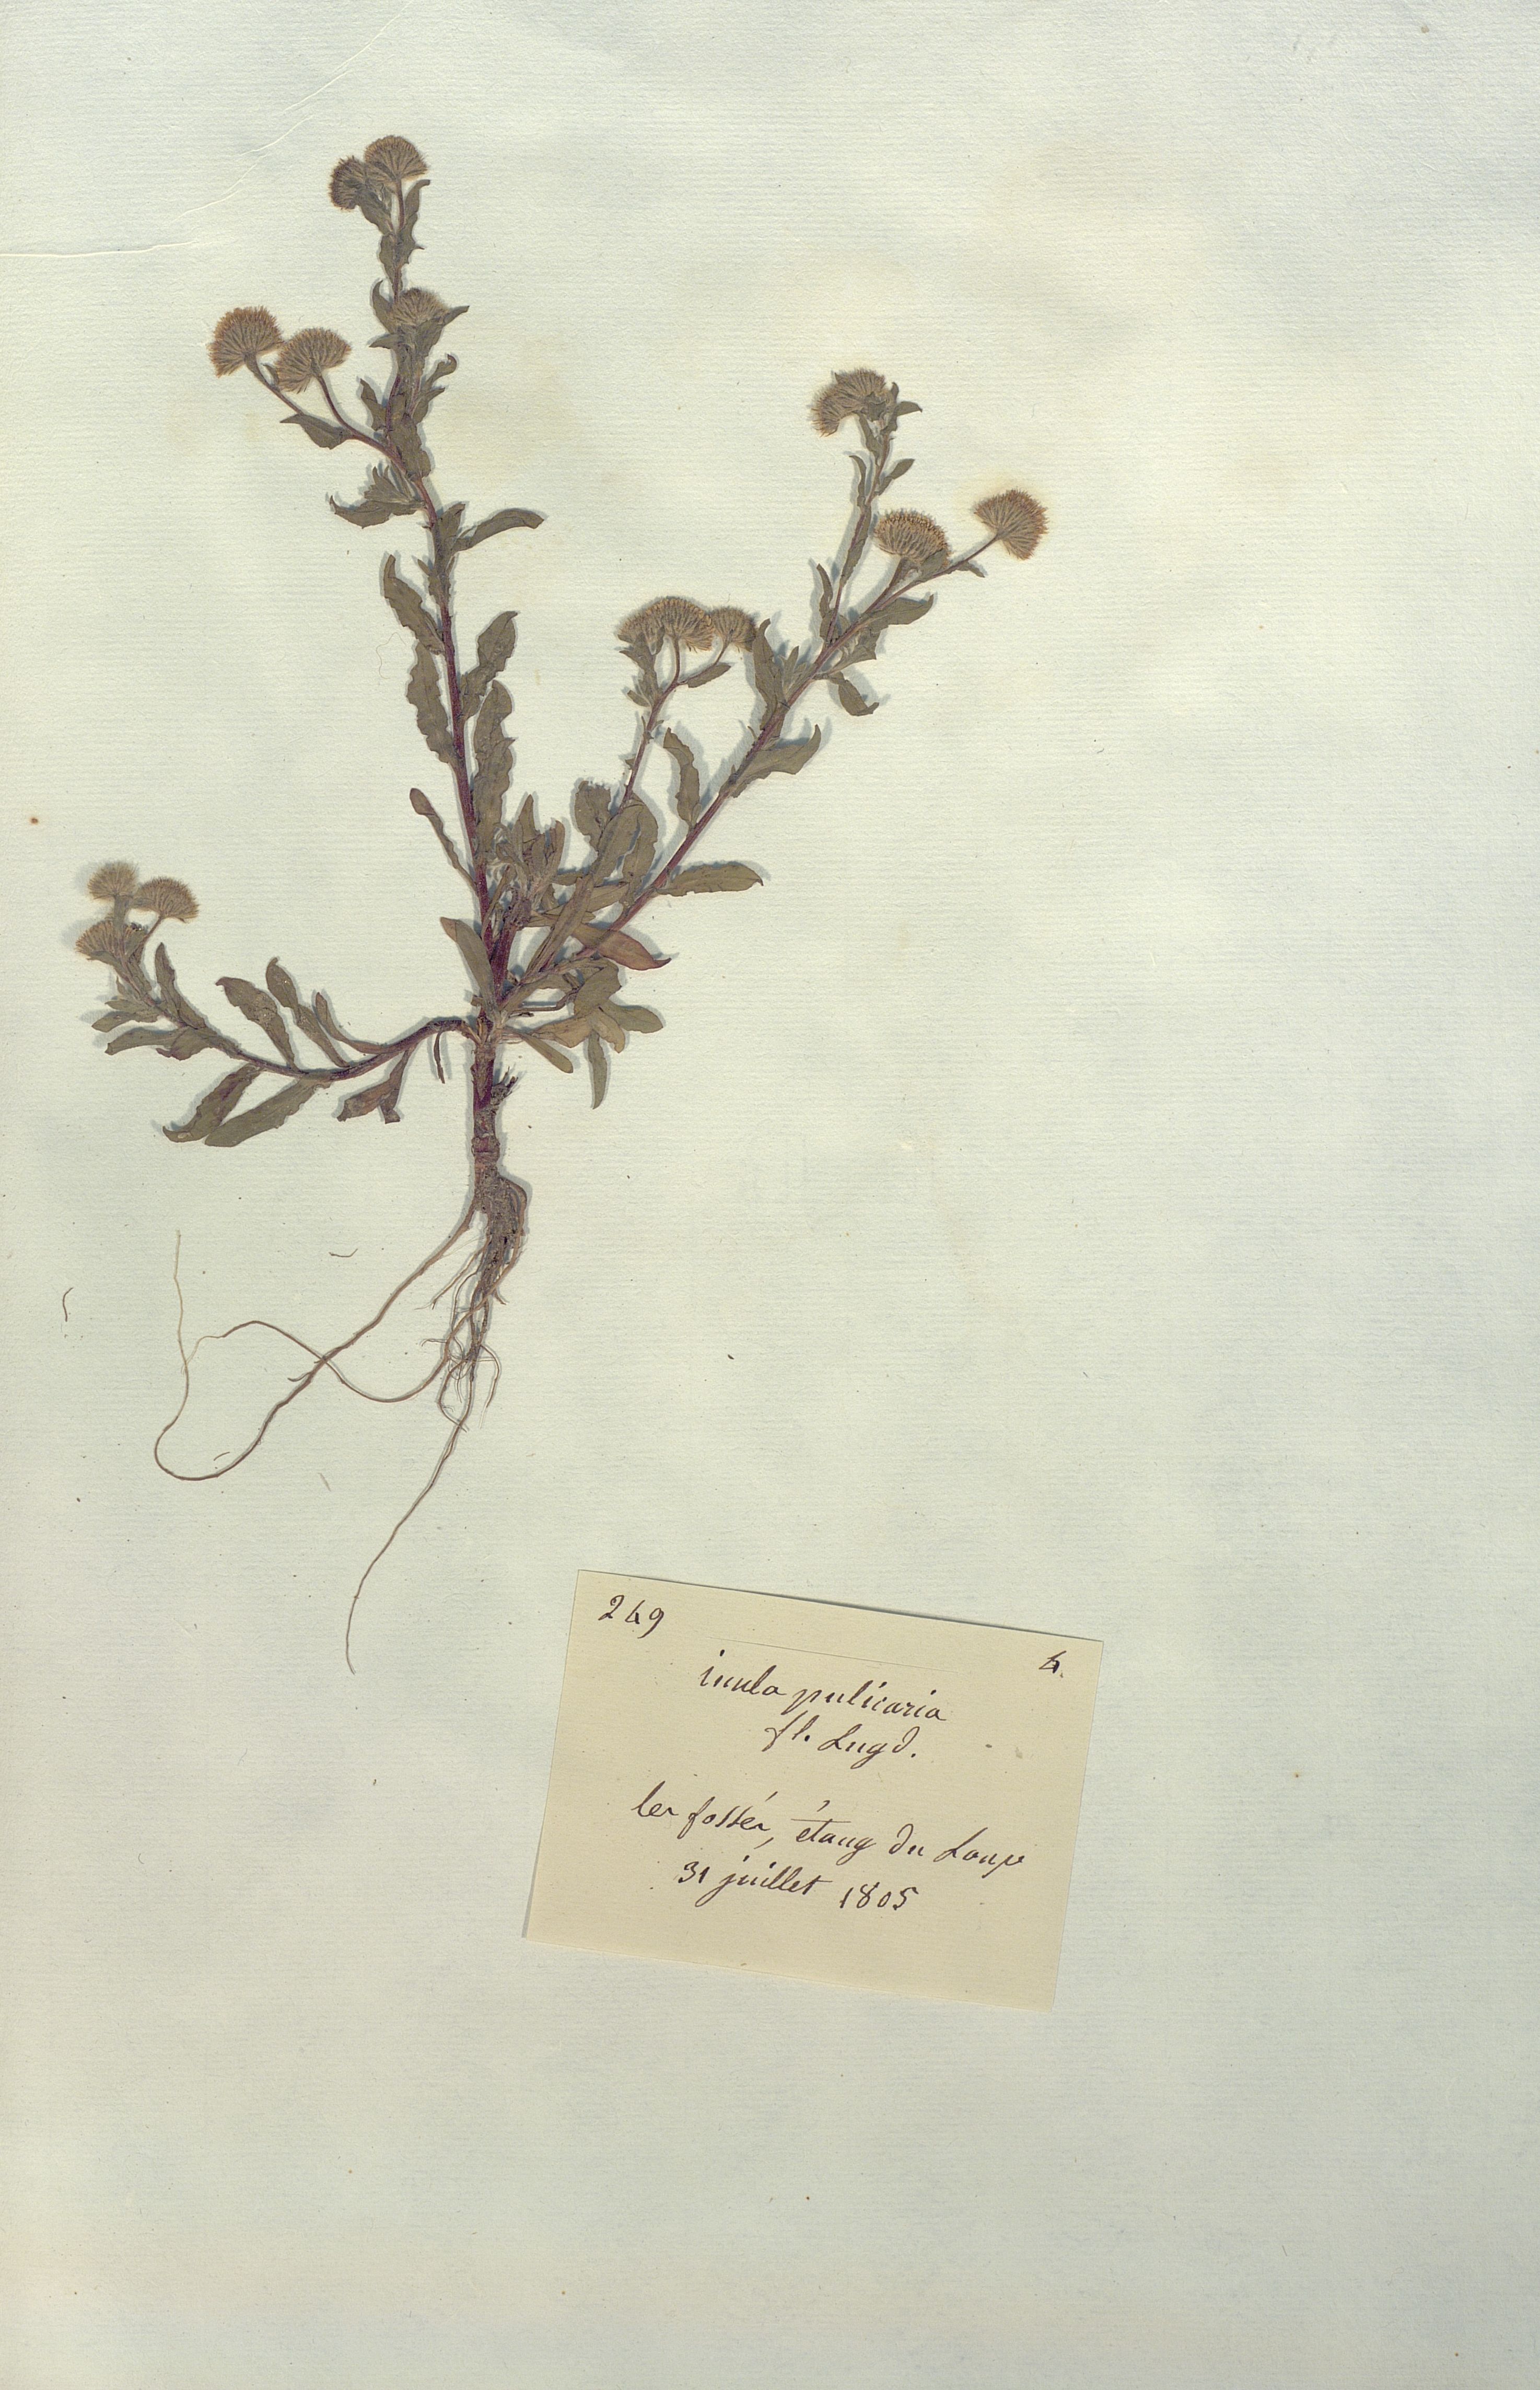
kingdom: Plantae
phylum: Tracheophyta
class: Magnoliopsida
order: Asterales
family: Asteraceae
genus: Inula
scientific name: Inula pulicaria
